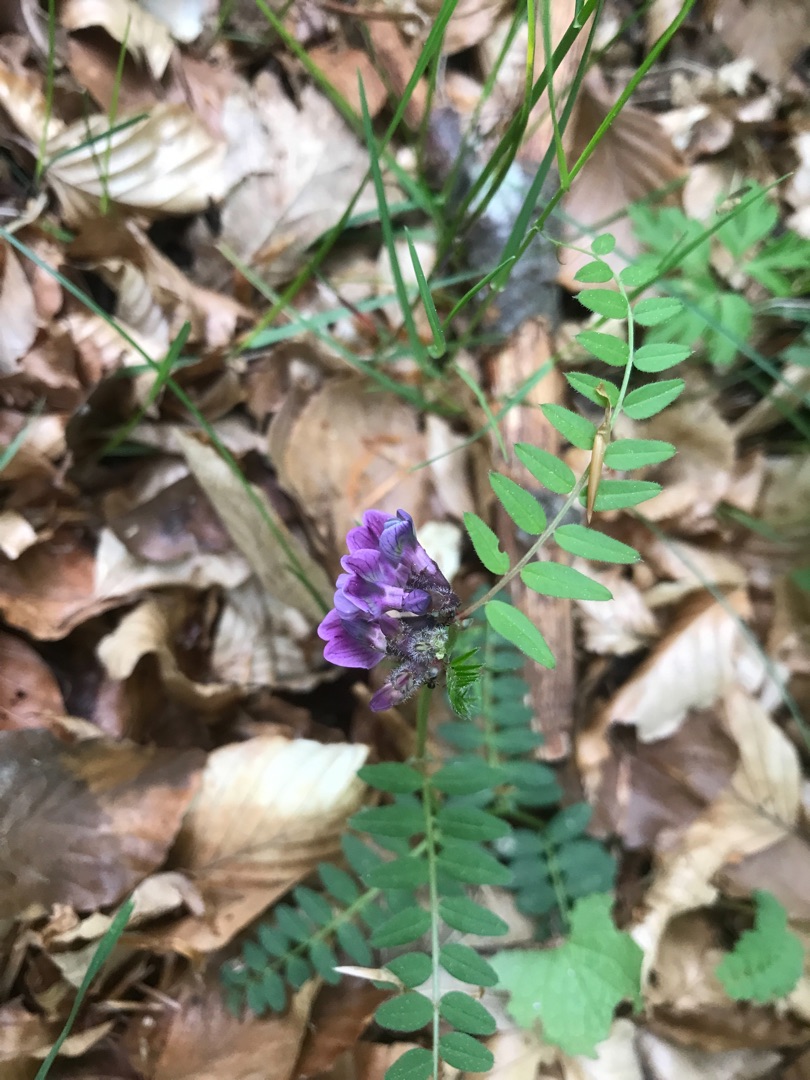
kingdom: Plantae
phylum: Tracheophyta
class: Magnoliopsida
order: Fabales
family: Fabaceae
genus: Vicia
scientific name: Vicia sepium
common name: Almindelig gærde-vikke
